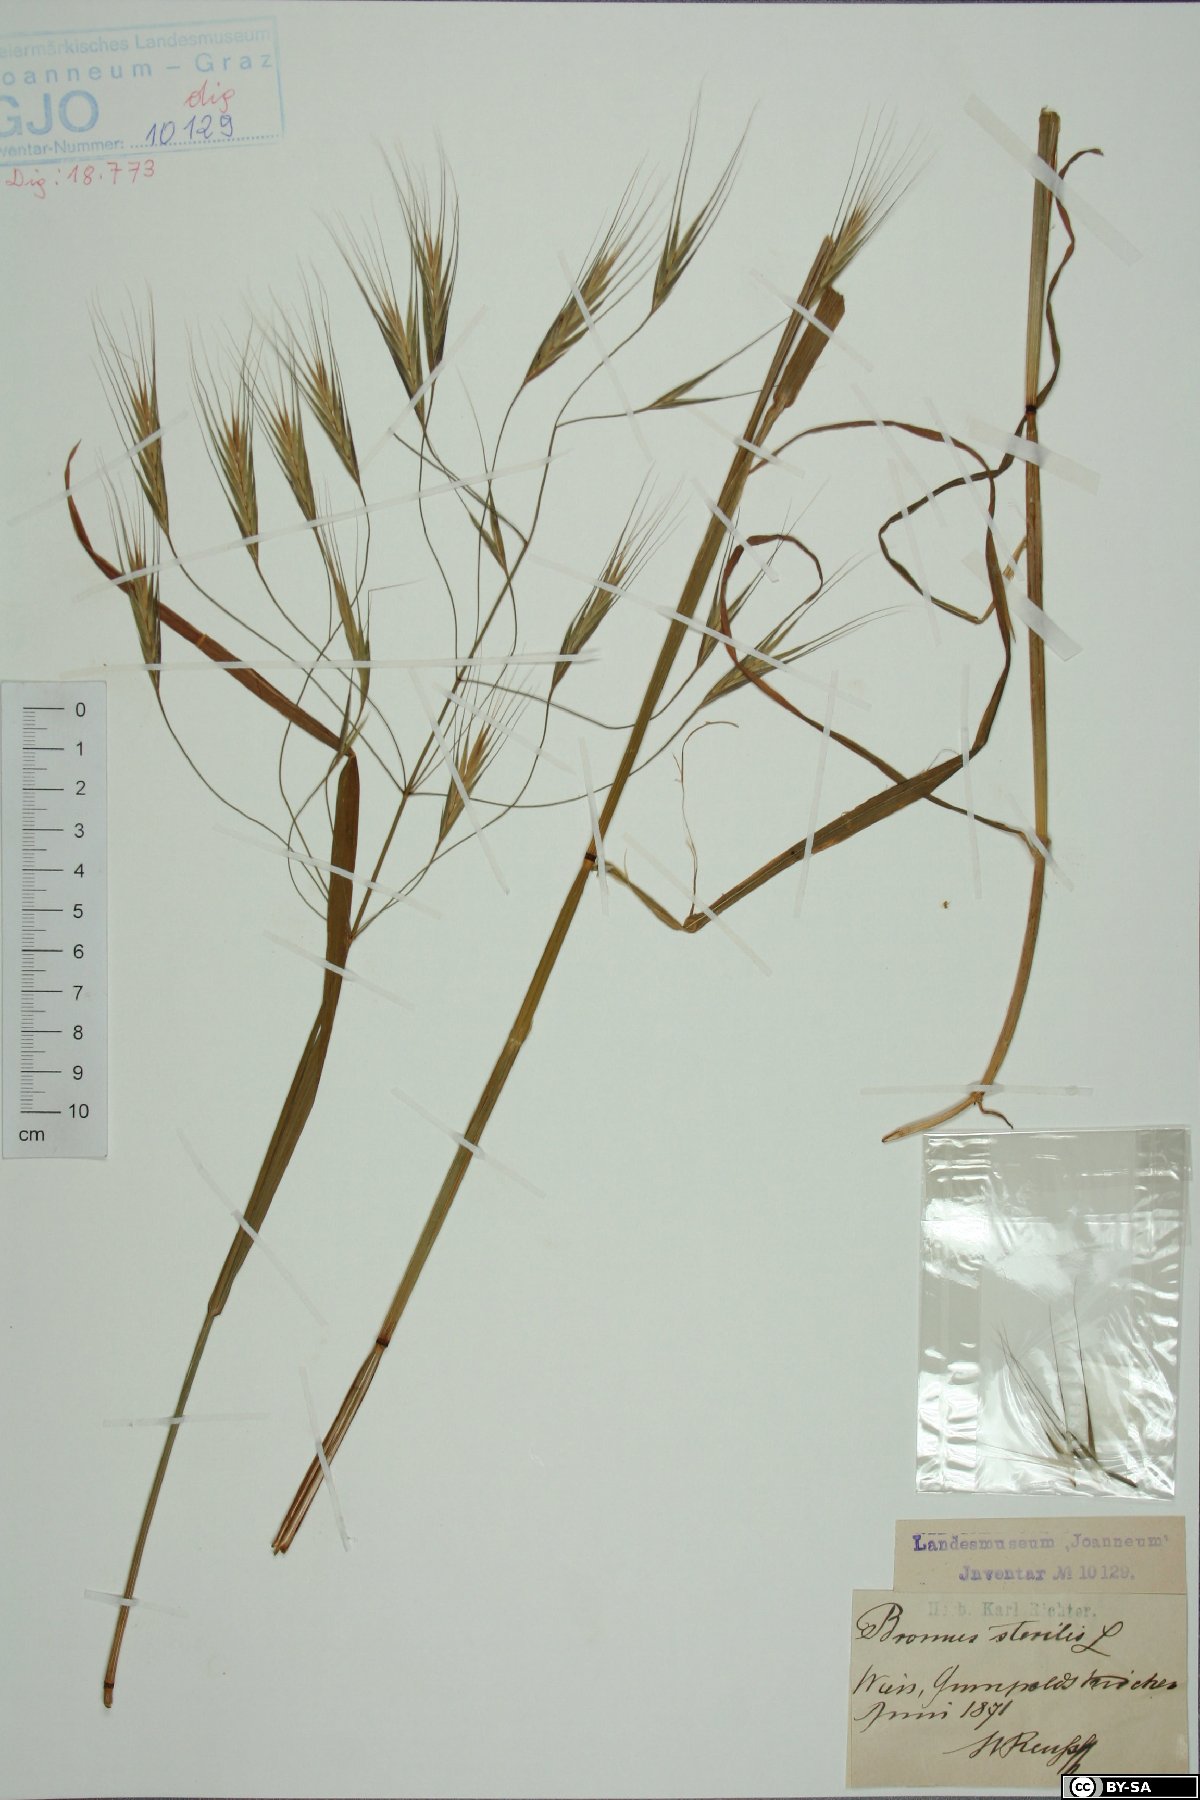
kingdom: Plantae
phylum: Tracheophyta
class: Liliopsida
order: Poales
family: Poaceae
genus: Bromus
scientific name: Bromus sterilis
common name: Poverty brome
